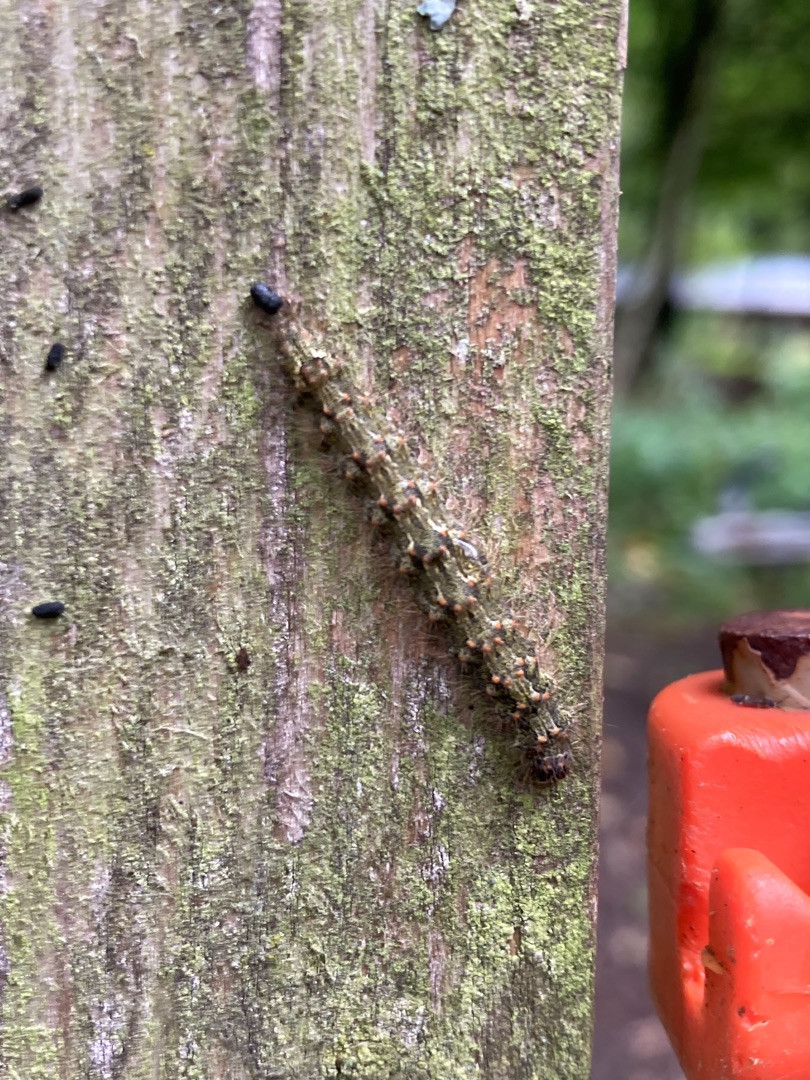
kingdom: Animalia
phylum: Arthropoda
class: Insecta
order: Lepidoptera
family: Erebidae
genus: Atolmis
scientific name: Atolmis rubricollis
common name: Blodnakke
